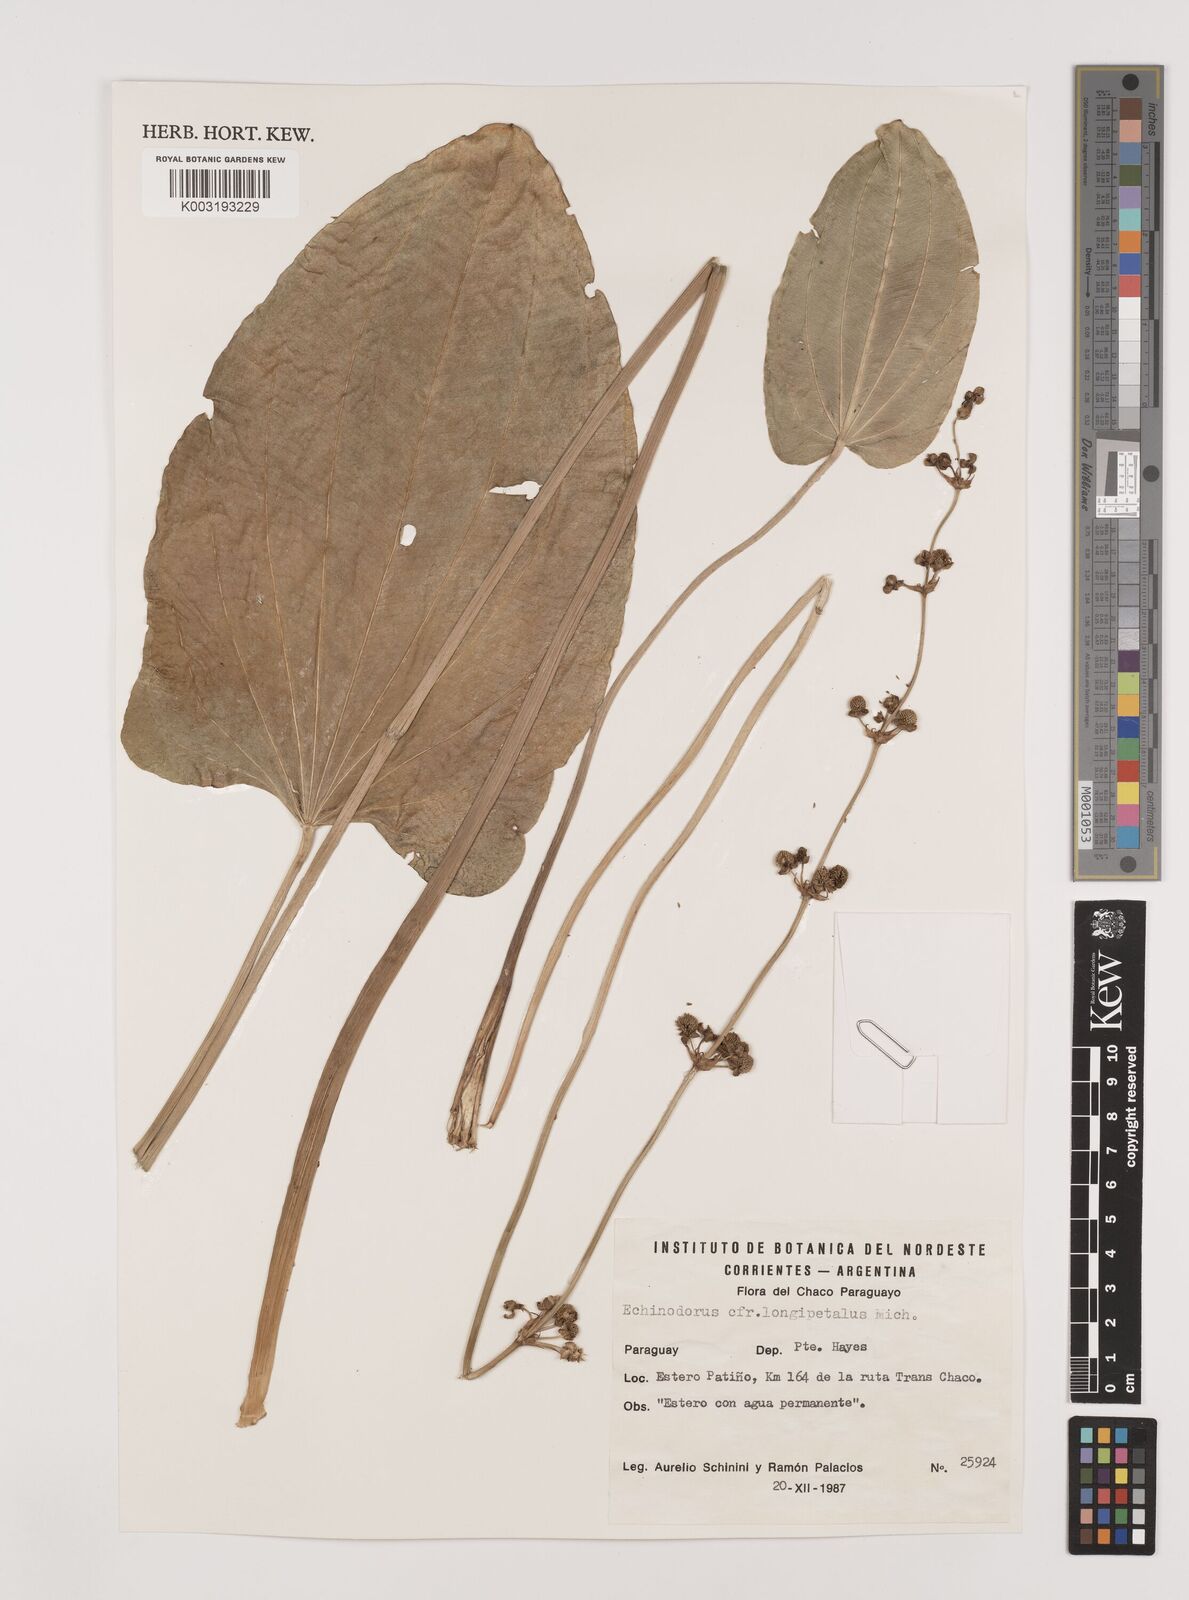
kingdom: Plantae
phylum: Tracheophyta
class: Liliopsida
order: Alismatales
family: Alismataceae
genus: Aquarius
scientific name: Aquarius longipetalus
